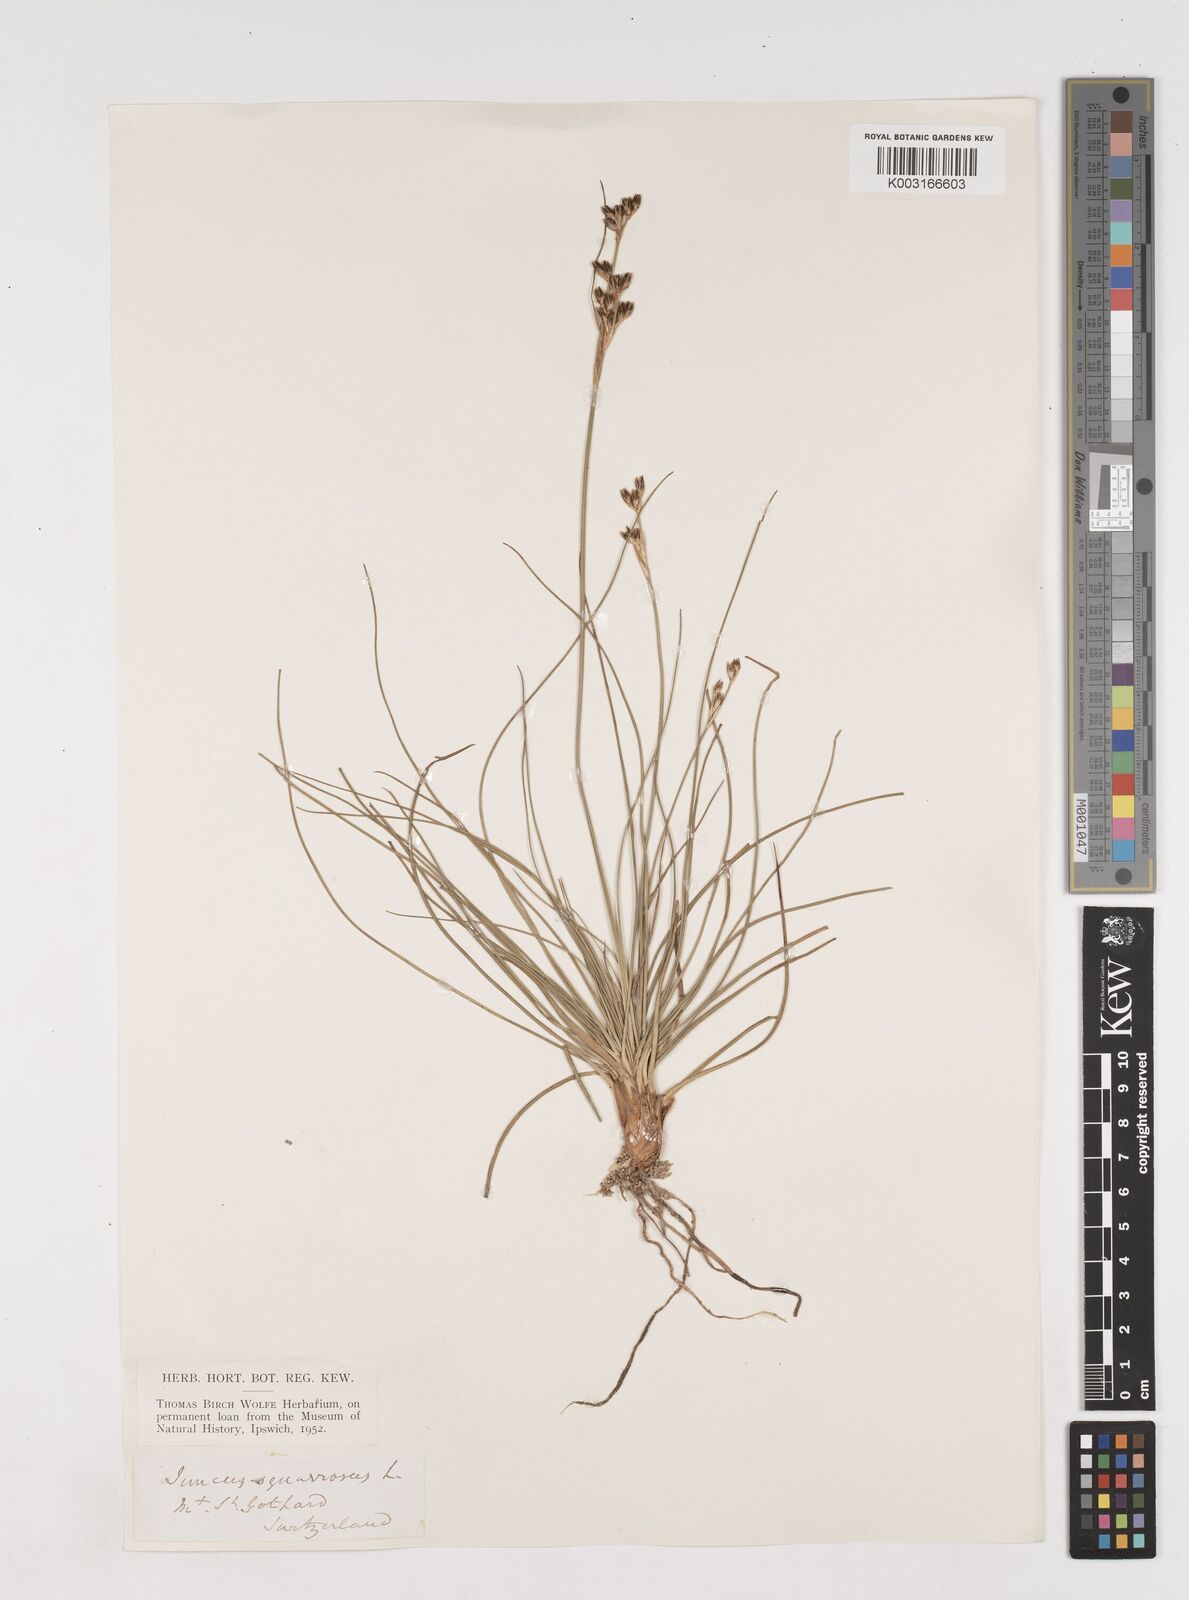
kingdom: Plantae
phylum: Tracheophyta
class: Liliopsida
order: Poales
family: Juncaceae
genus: Juncus
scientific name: Juncus squarrosus
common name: Heath rush
